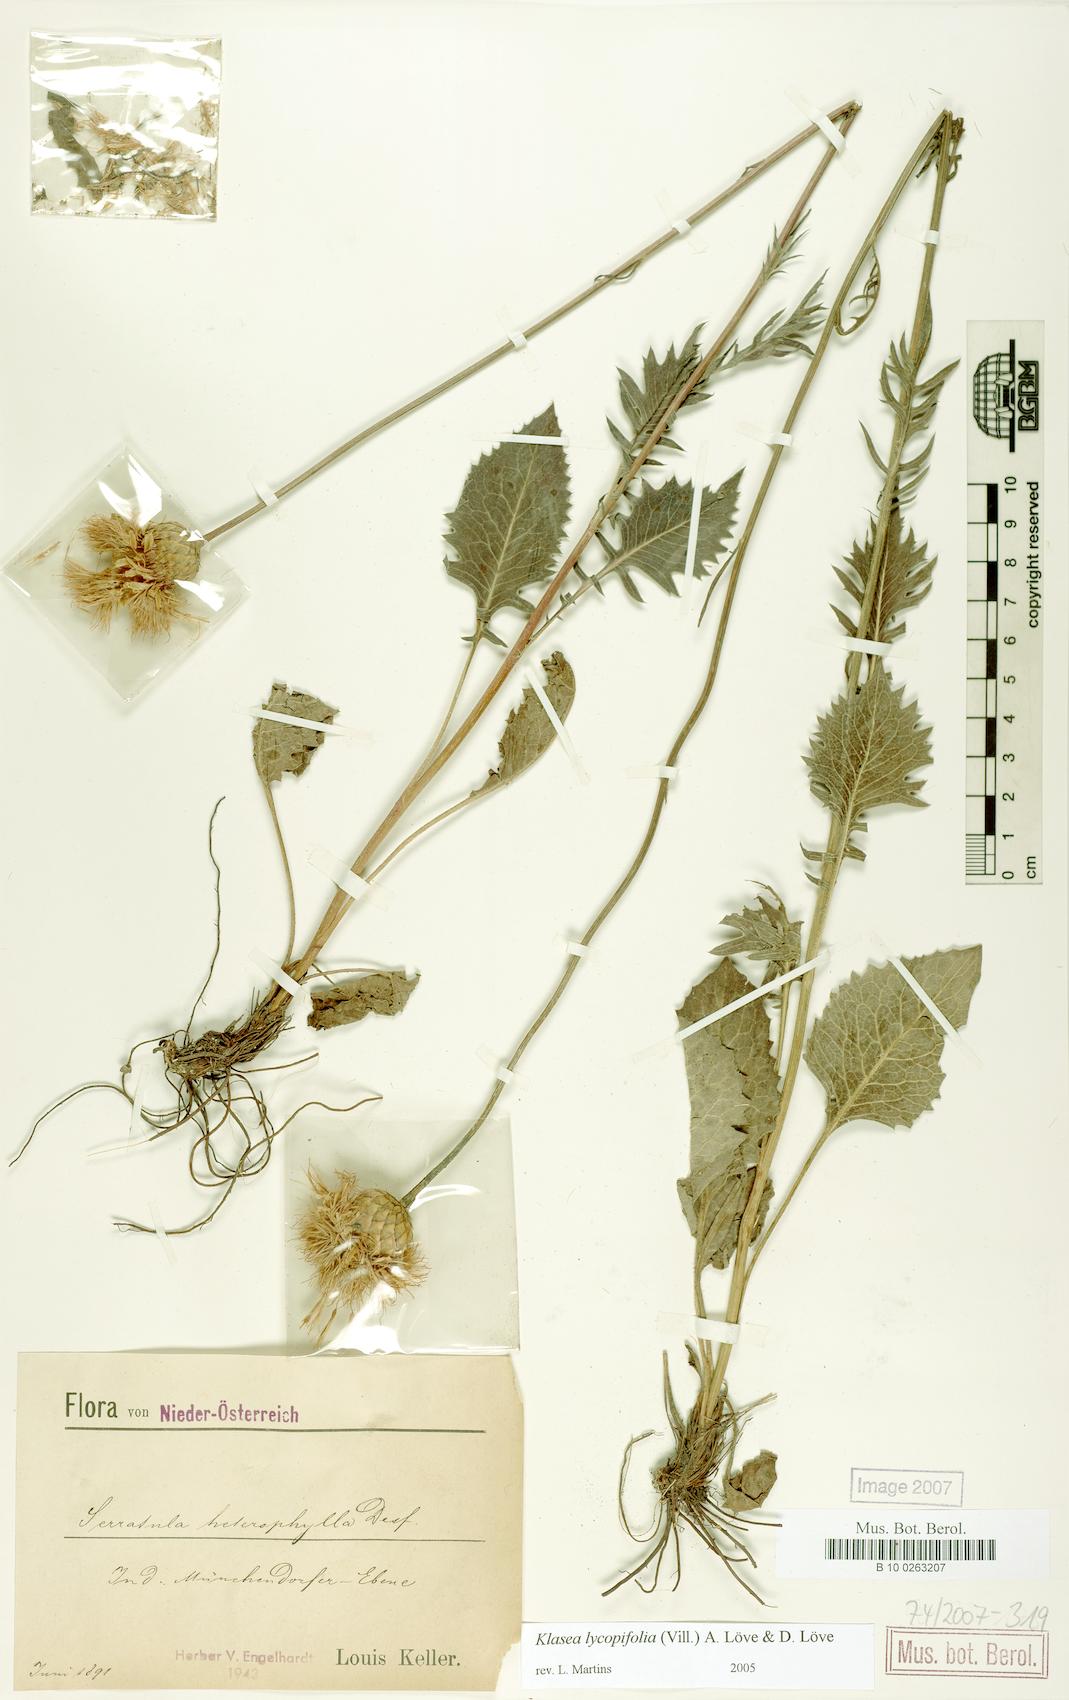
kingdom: Plantae
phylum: Tracheophyta
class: Magnoliopsida
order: Asterales
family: Asteraceae
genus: Klasea
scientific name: Klasea lycopifolia
